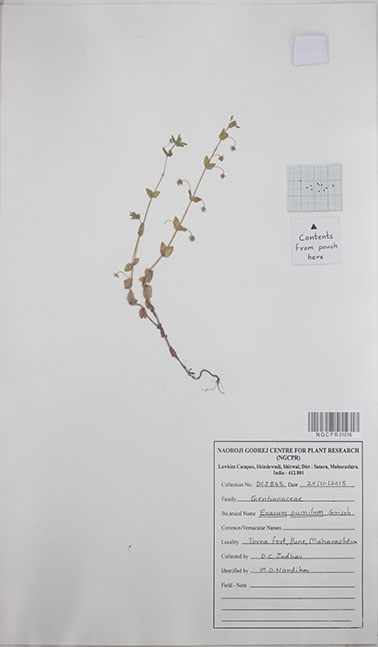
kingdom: Plantae
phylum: Tracheophyta
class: Magnoliopsida
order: Gentianales
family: Gentianaceae
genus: Exacum
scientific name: Exacum pumilum
